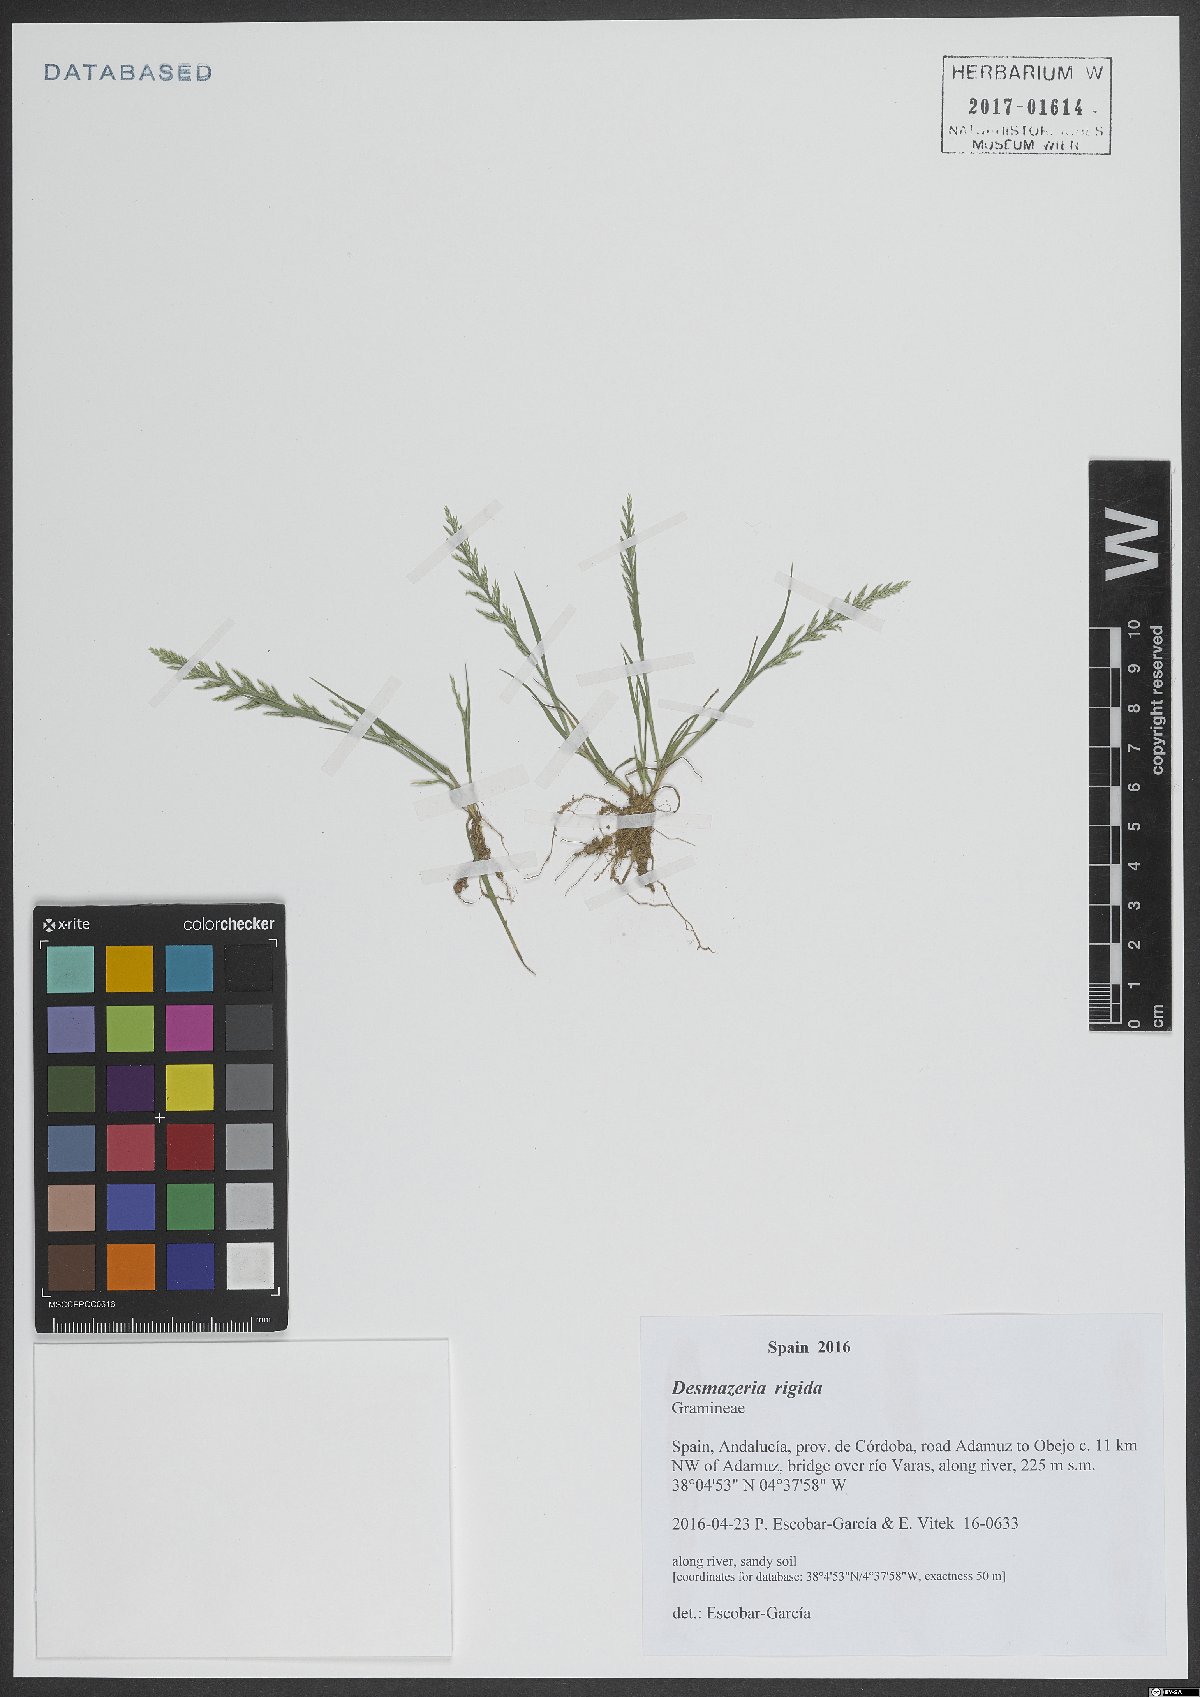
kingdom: Plantae
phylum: Tracheophyta
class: Liliopsida
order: Poales
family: Poaceae
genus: Catapodium
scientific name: Catapodium rigidum
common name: Fern-grass
